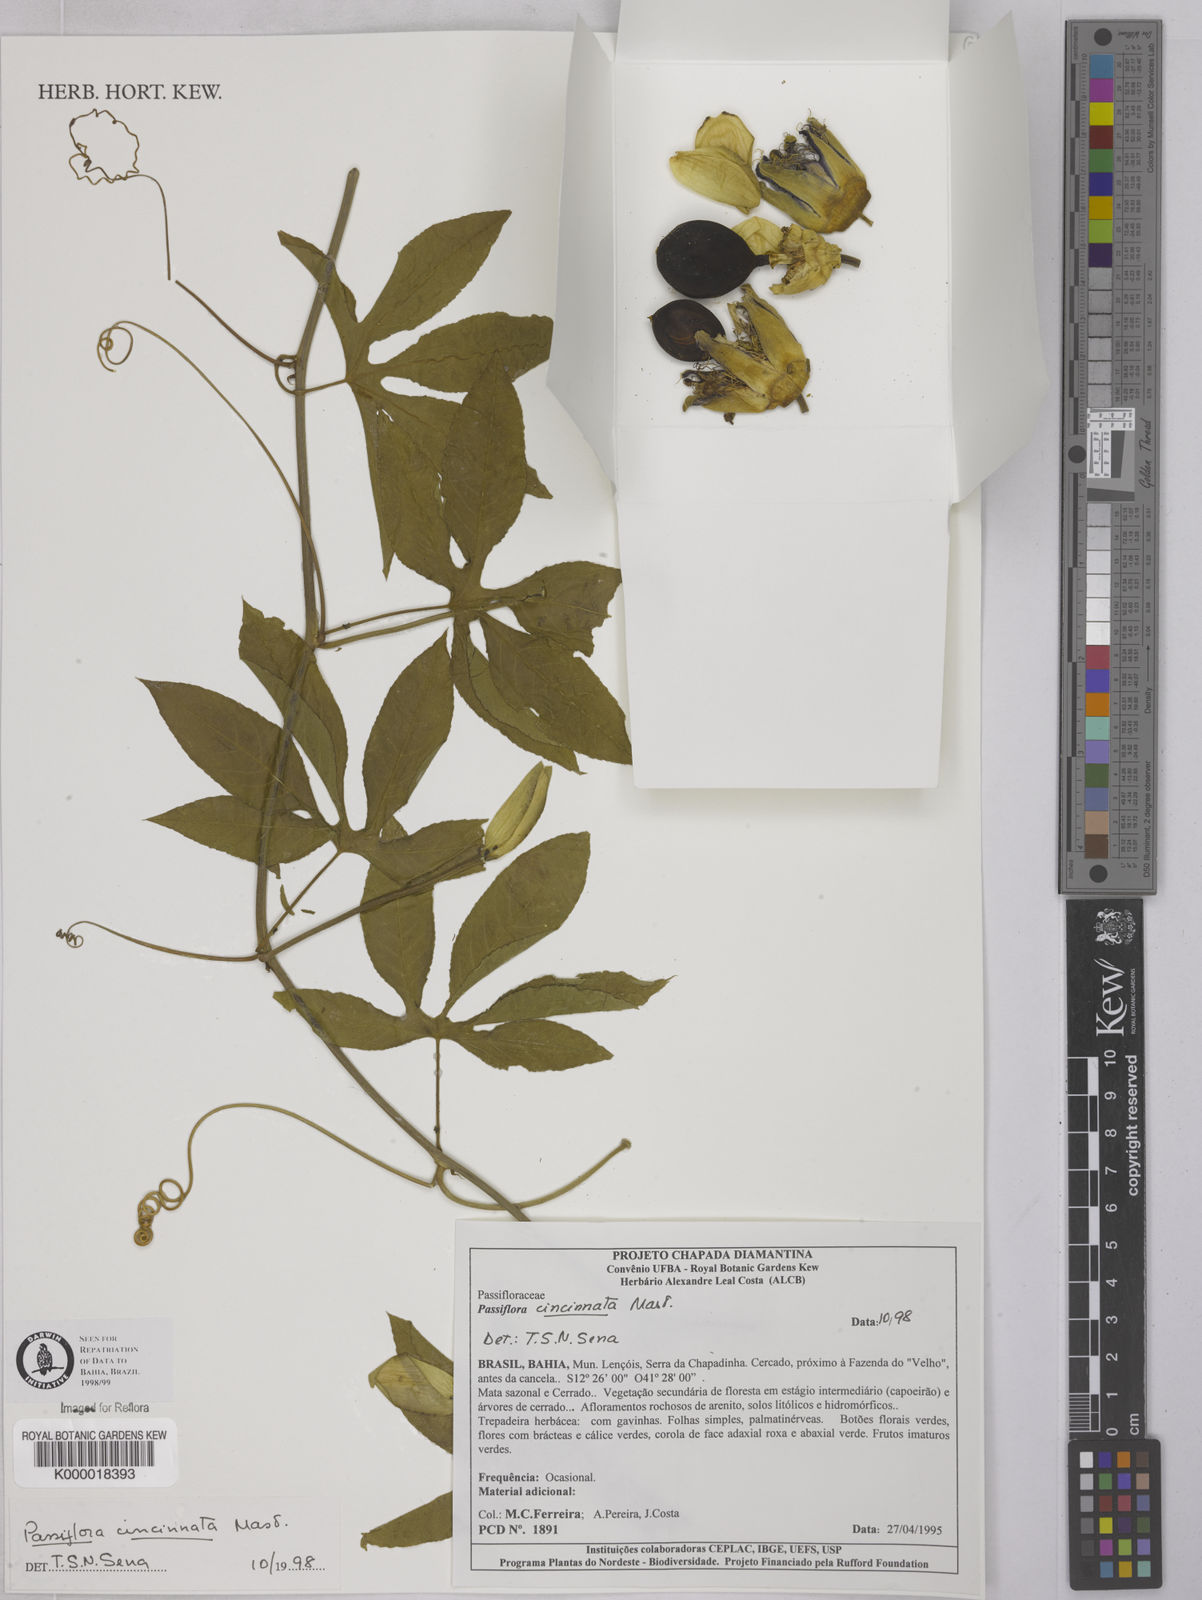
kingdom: Plantae
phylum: Tracheophyta
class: Magnoliopsida
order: Malpighiales
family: Passifloraceae
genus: Passiflora
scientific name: Passiflora cincinnata
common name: Crato passionvine
